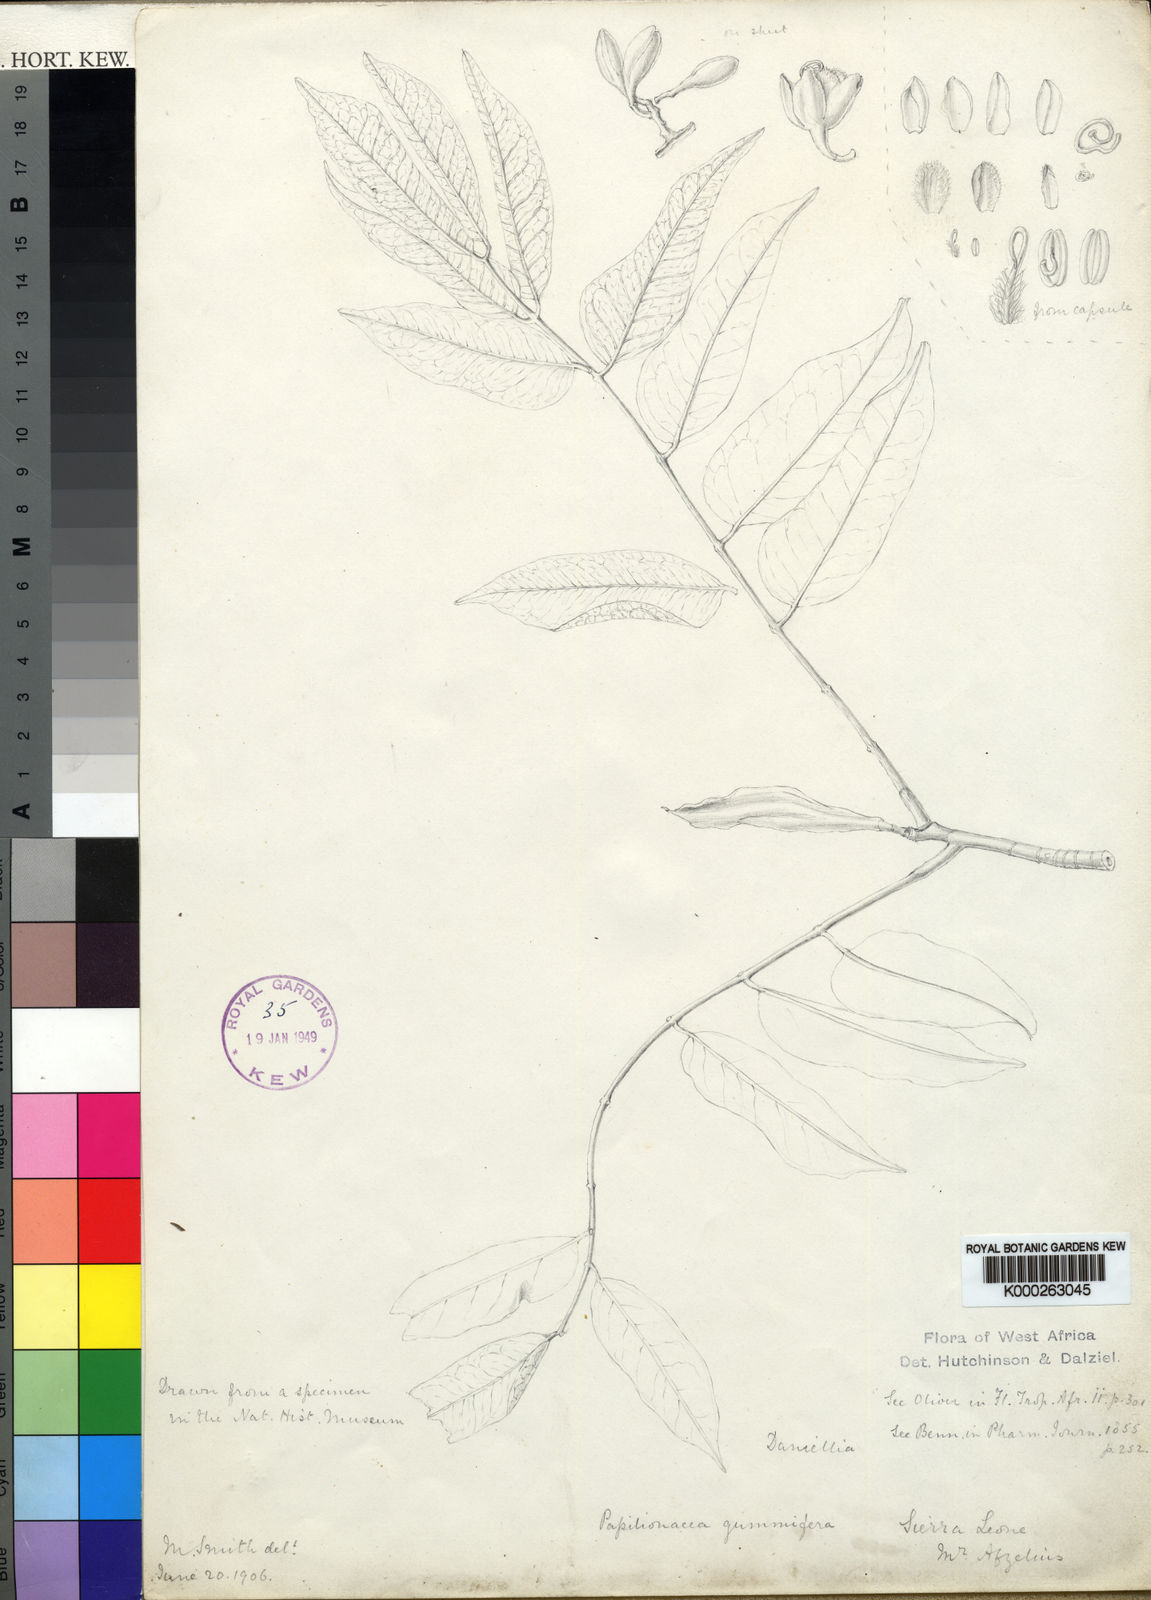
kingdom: Plantae
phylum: Tracheophyta
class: Magnoliopsida
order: Fabales
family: Fabaceae
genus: Daniellia
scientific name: Daniellia thurifera
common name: Sudan copal
